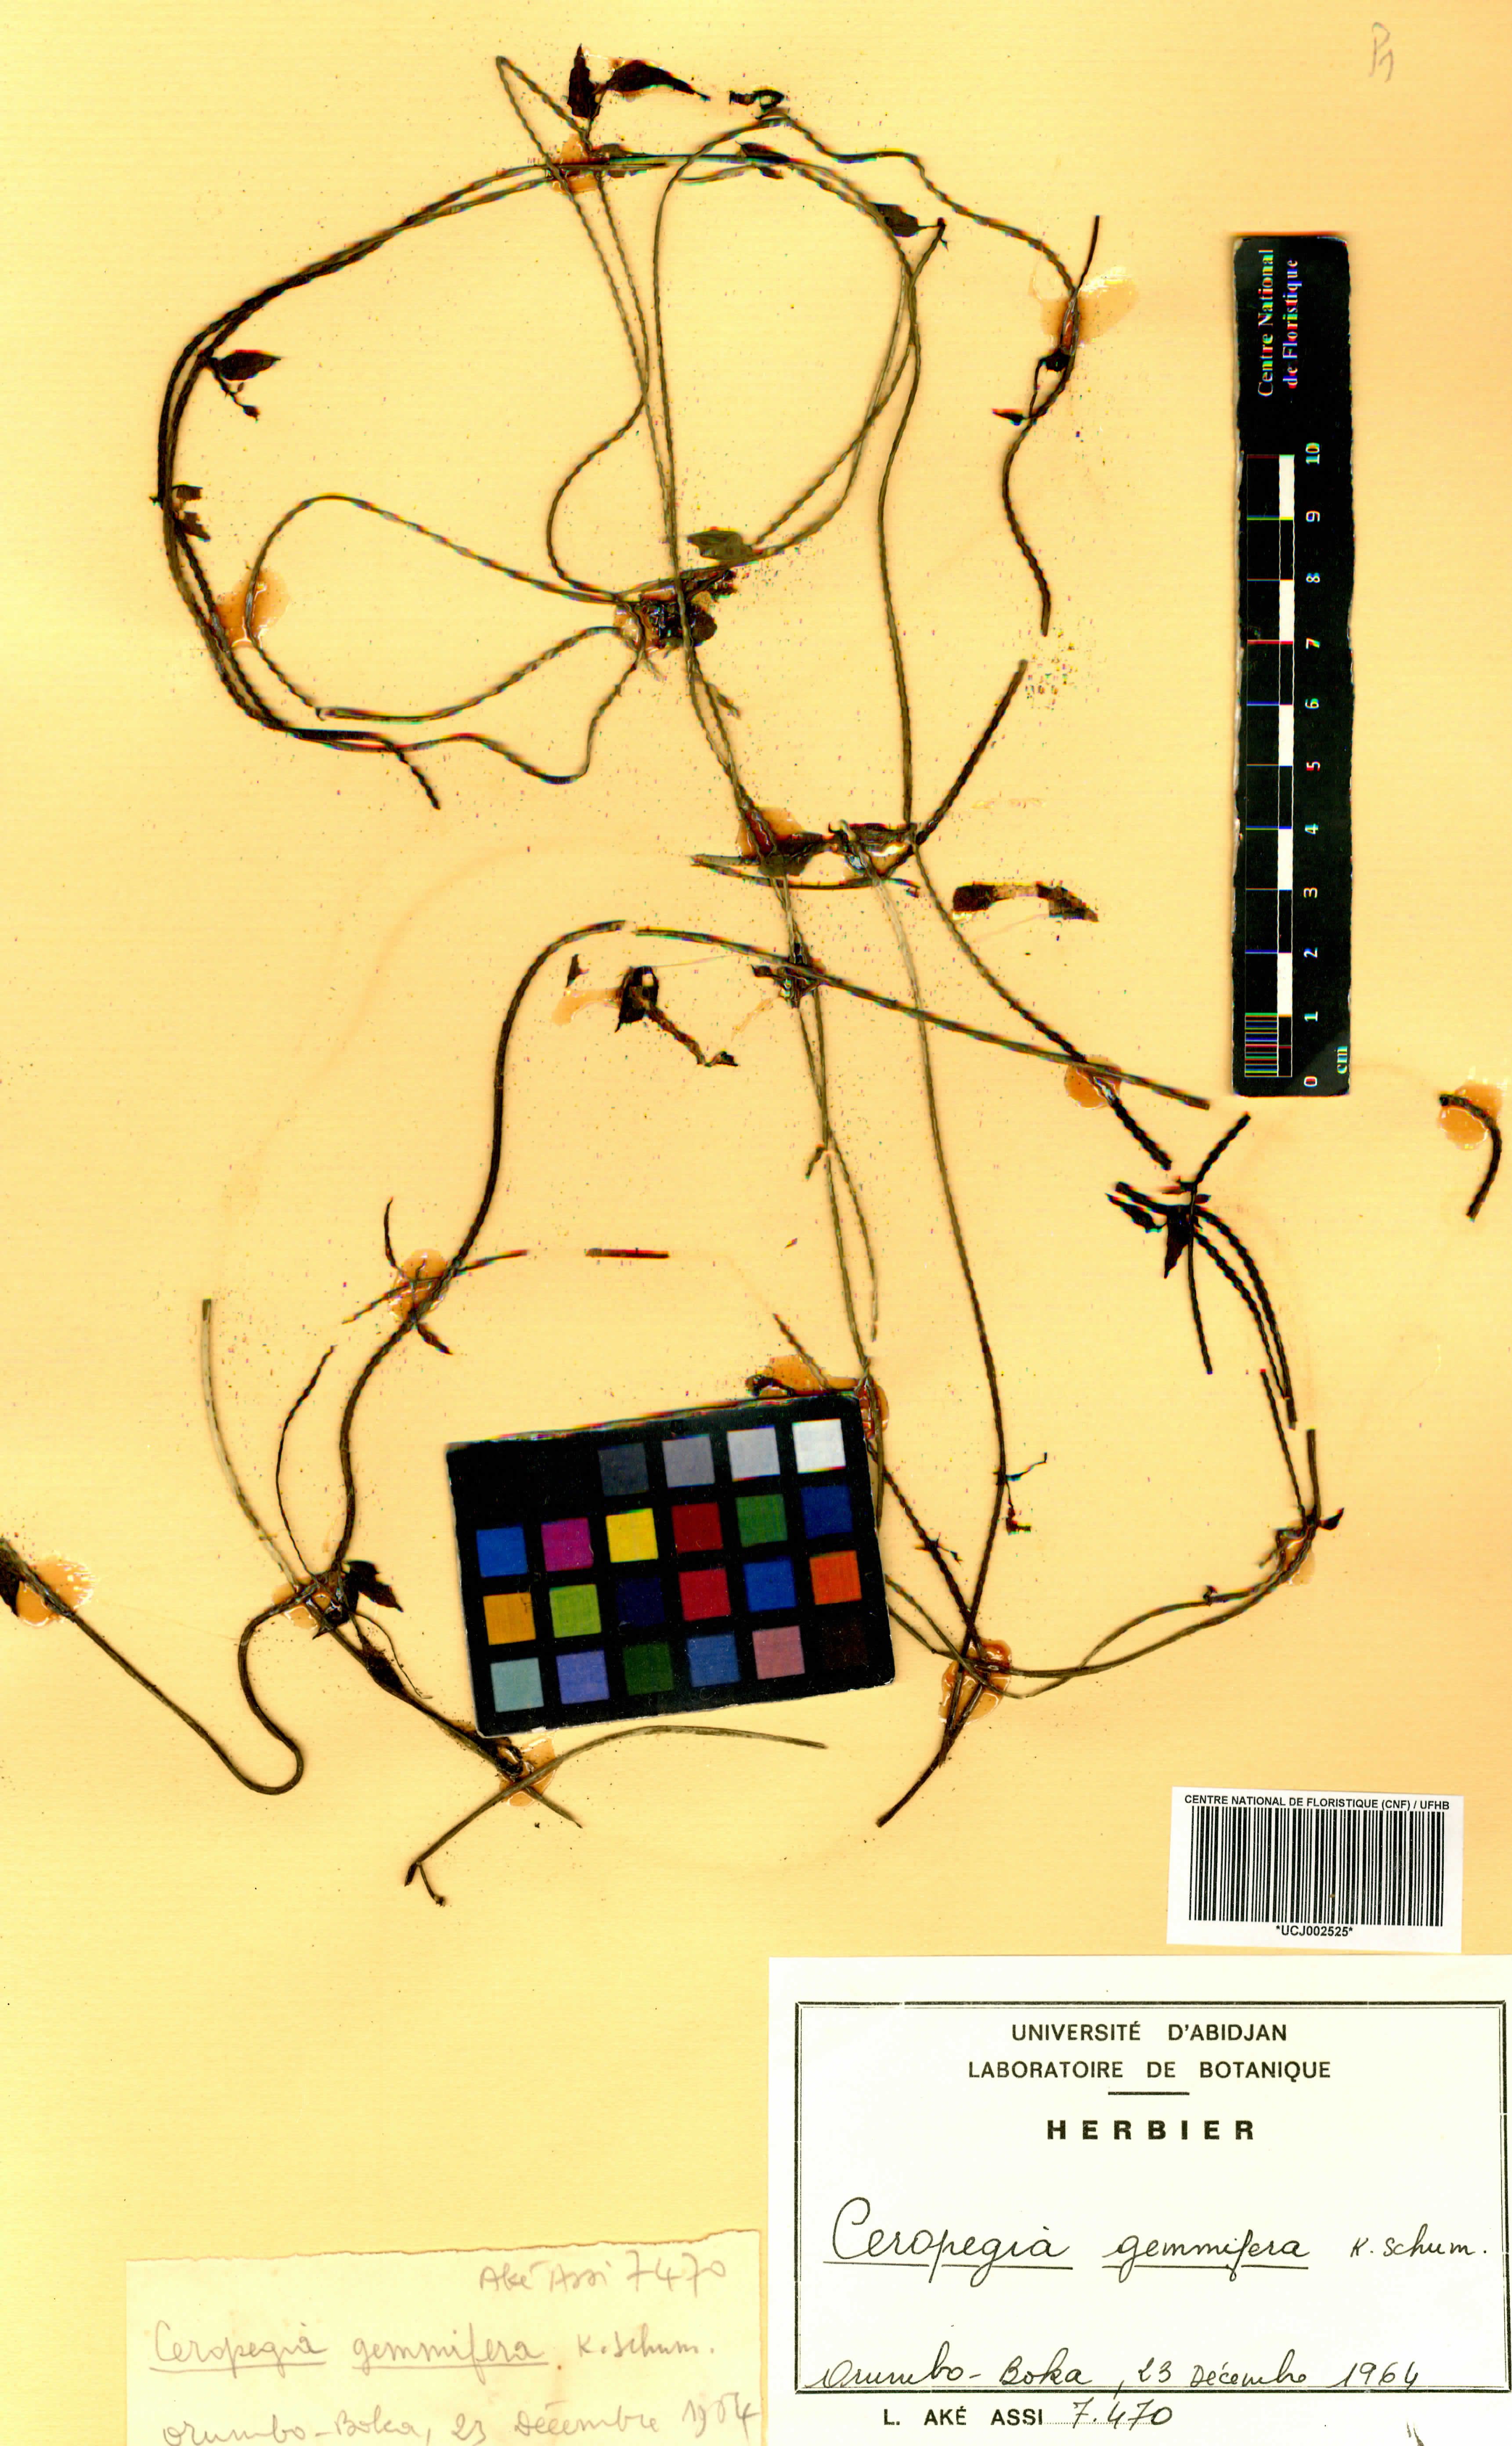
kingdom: Plantae
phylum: Tracheophyta
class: Magnoliopsida
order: Gentianales
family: Apocynaceae
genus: Ceropegia
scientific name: Ceropegia nilotica
